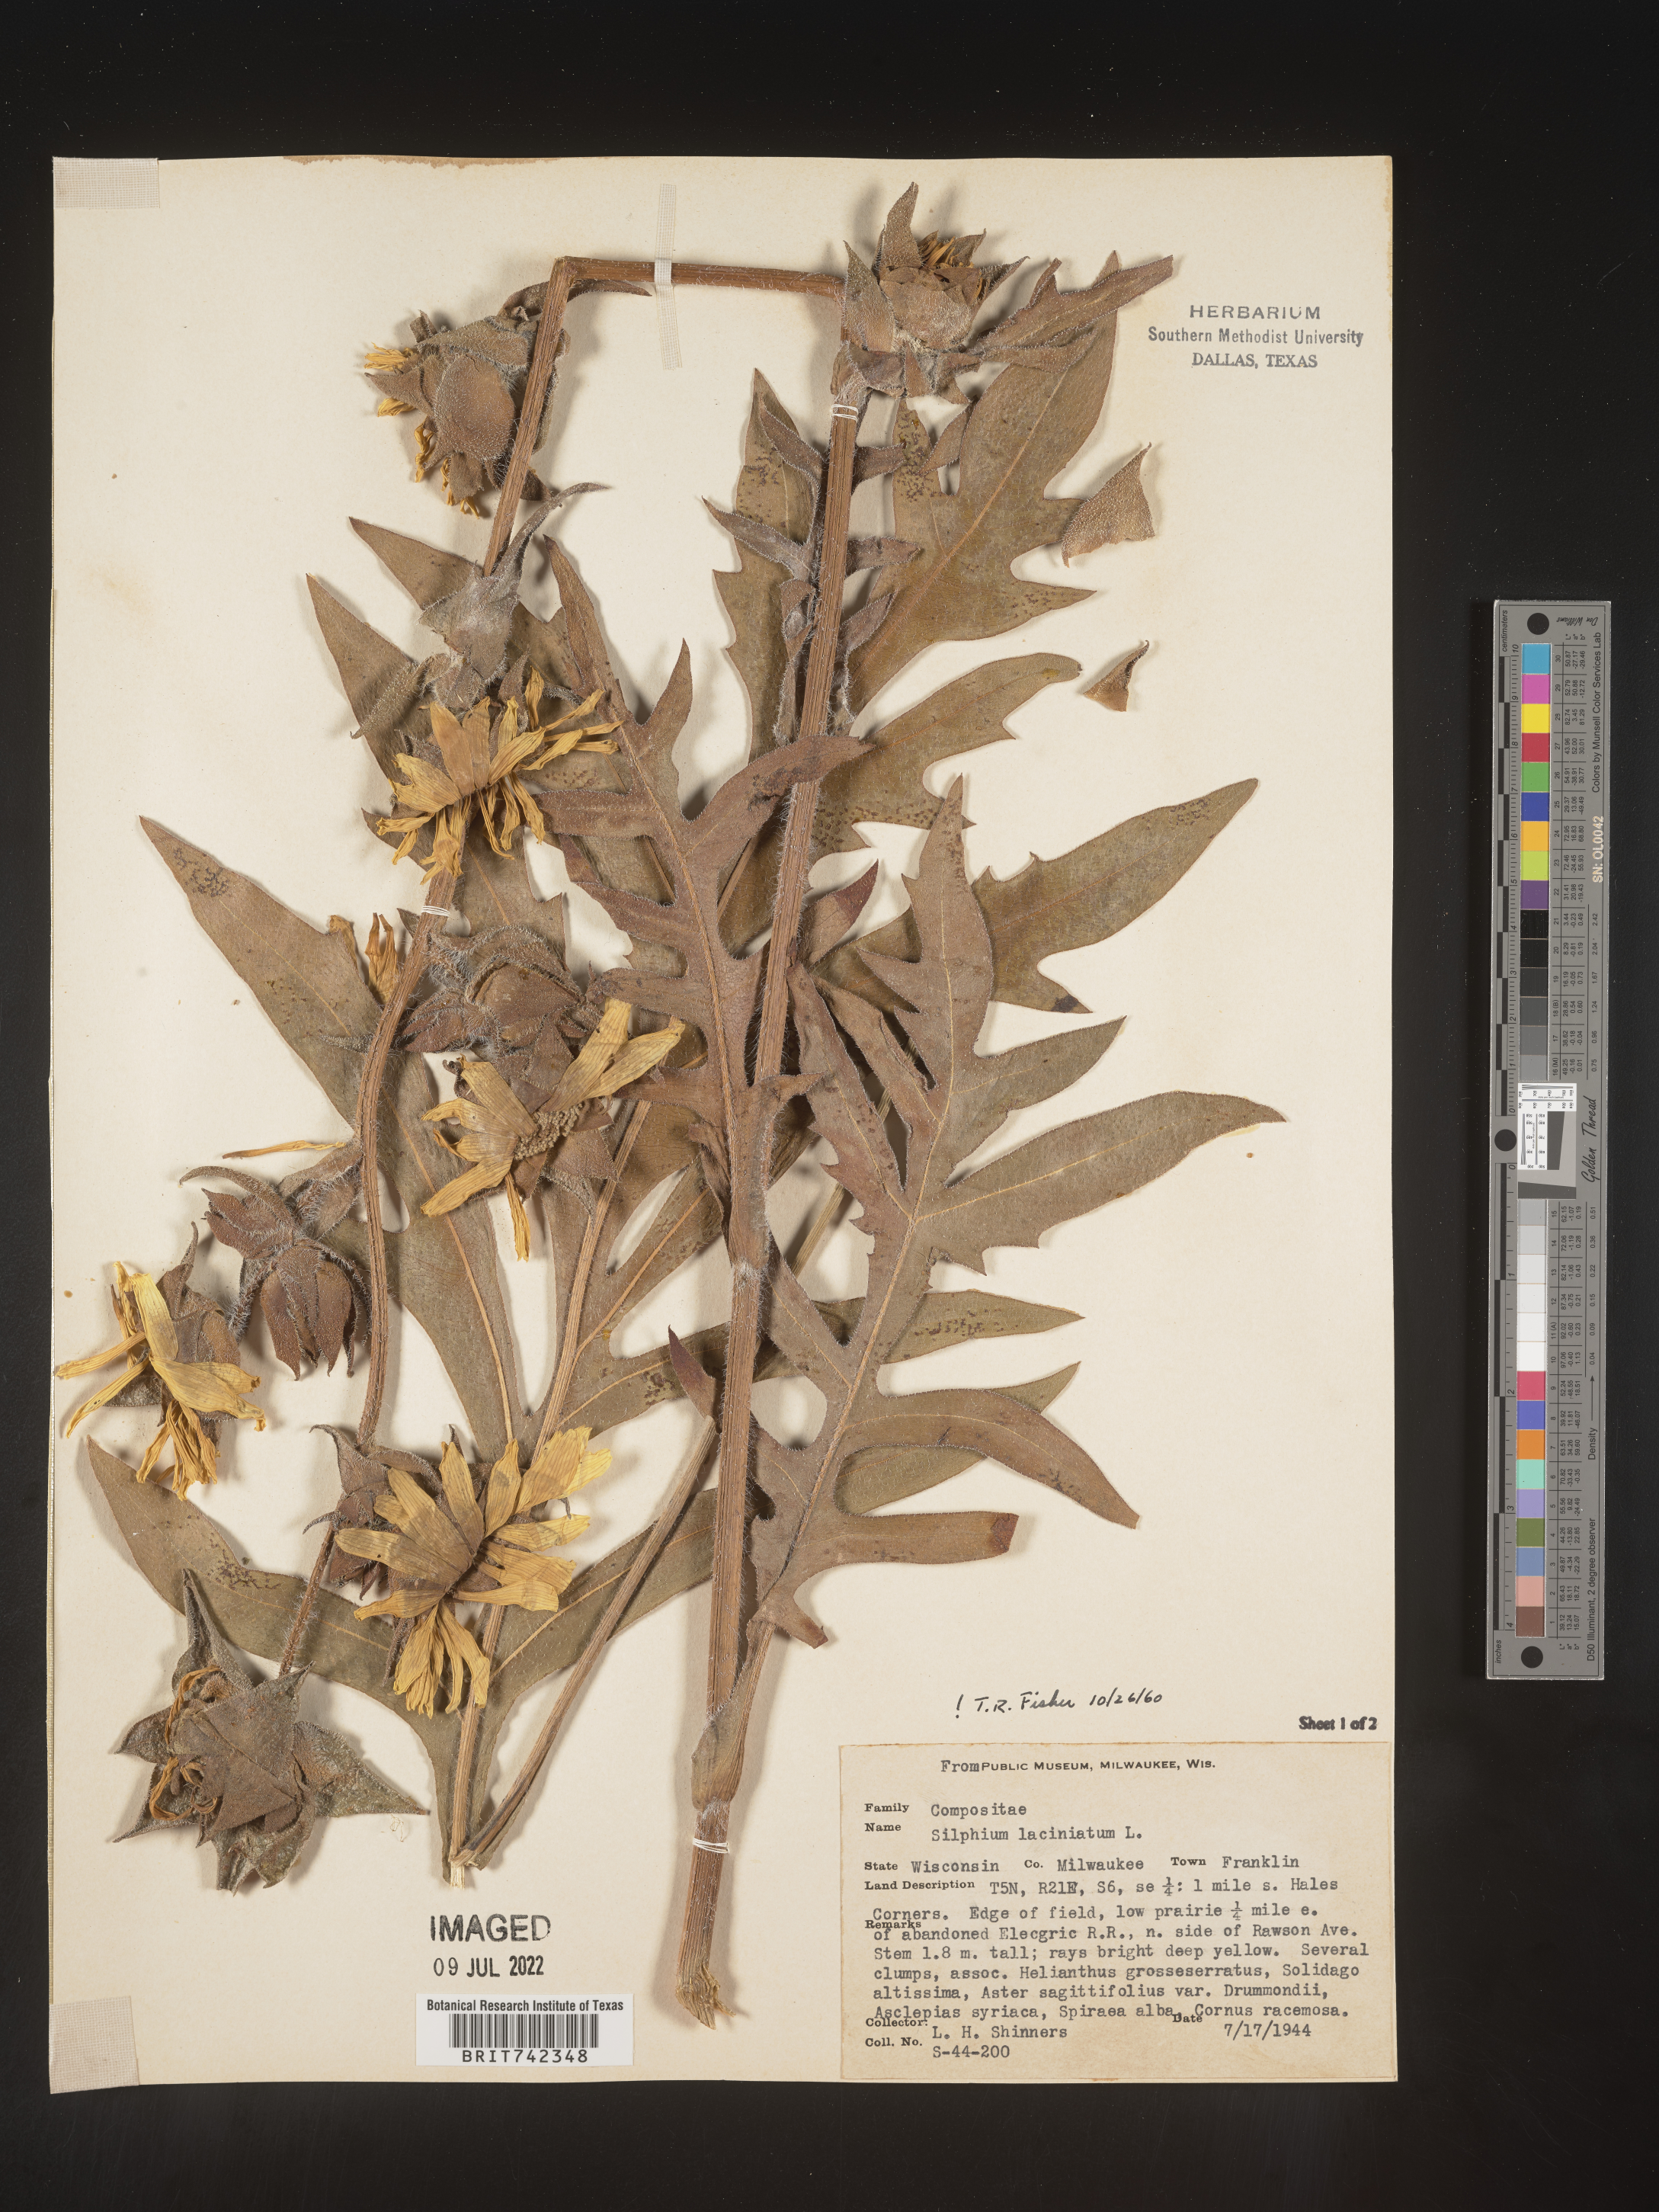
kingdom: Plantae
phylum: Tracheophyta
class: Magnoliopsida
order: Asterales
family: Asteraceae
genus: Silphium
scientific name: Silphium laciniatum
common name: Polarplant
